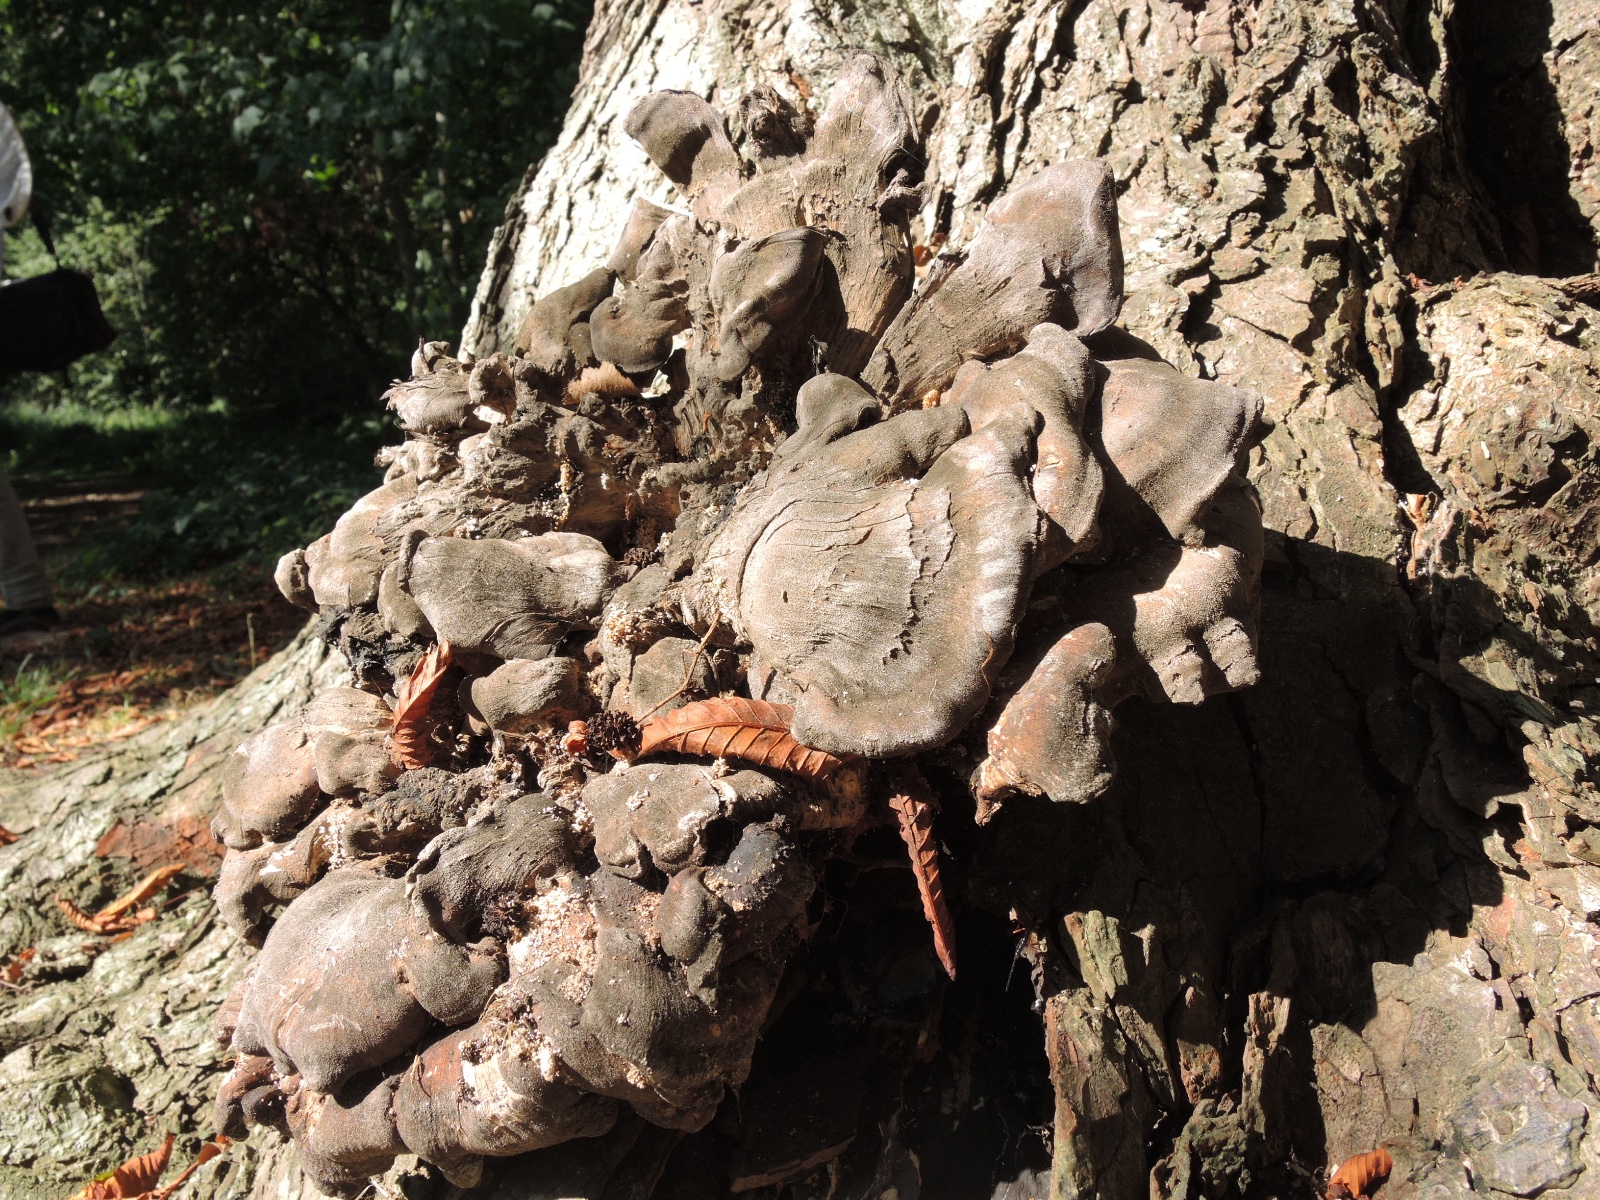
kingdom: Fungi
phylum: Basidiomycota
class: Agaricomycetes
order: Polyporales
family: Meripilaceae
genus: Meripilus
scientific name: Meripilus giganteus
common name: kæmpeporesvamp
